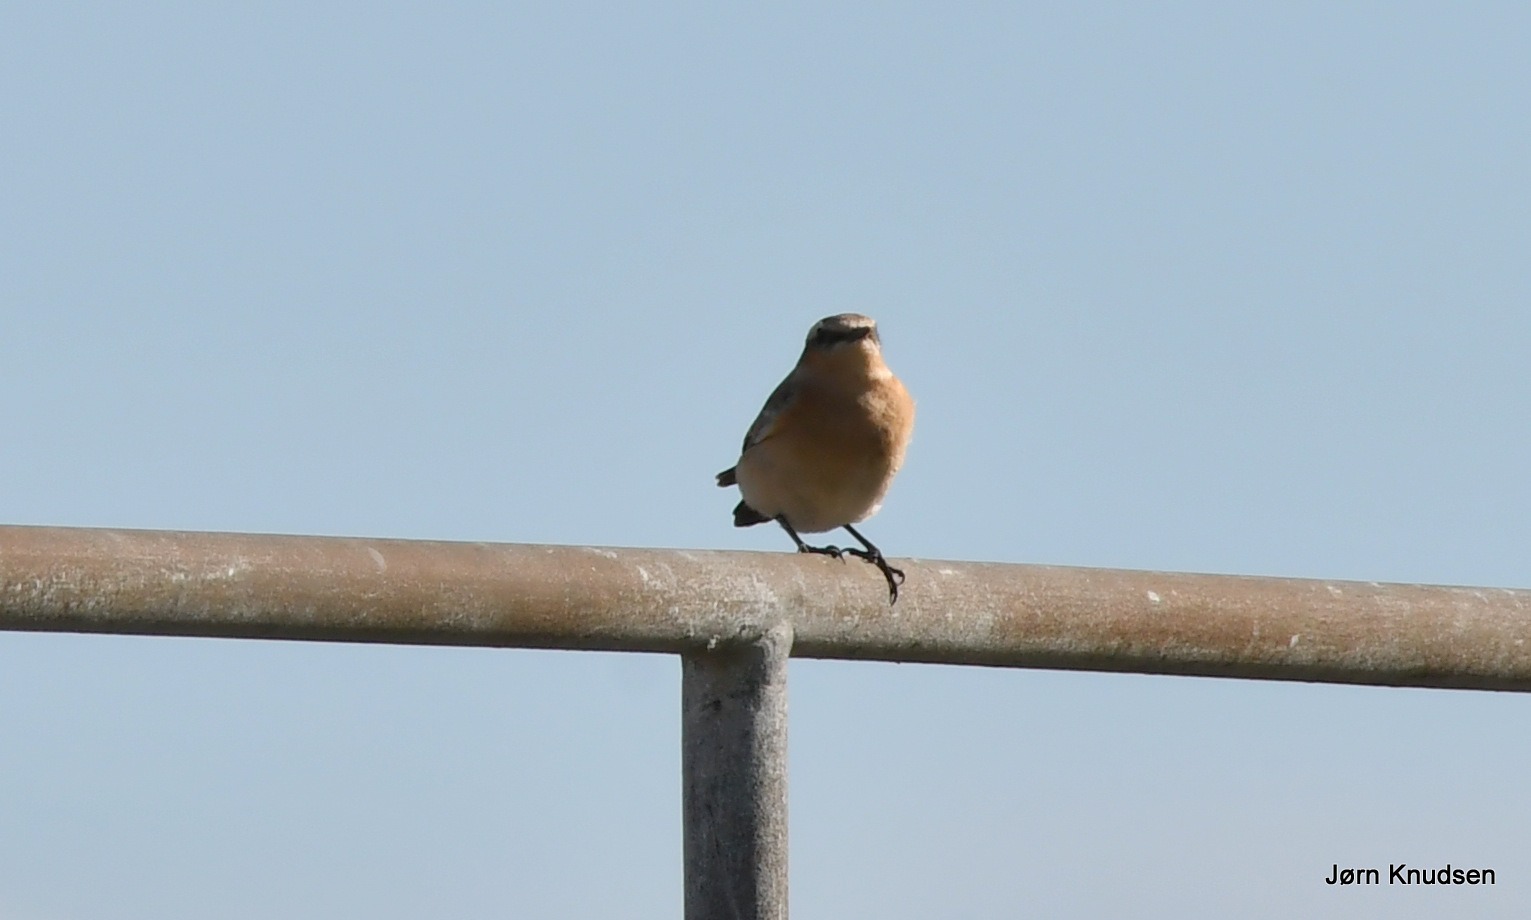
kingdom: Animalia
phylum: Chordata
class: Aves
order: Passeriformes
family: Muscicapidae
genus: Oenanthe
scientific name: Oenanthe oenanthe
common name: Stenpikker
